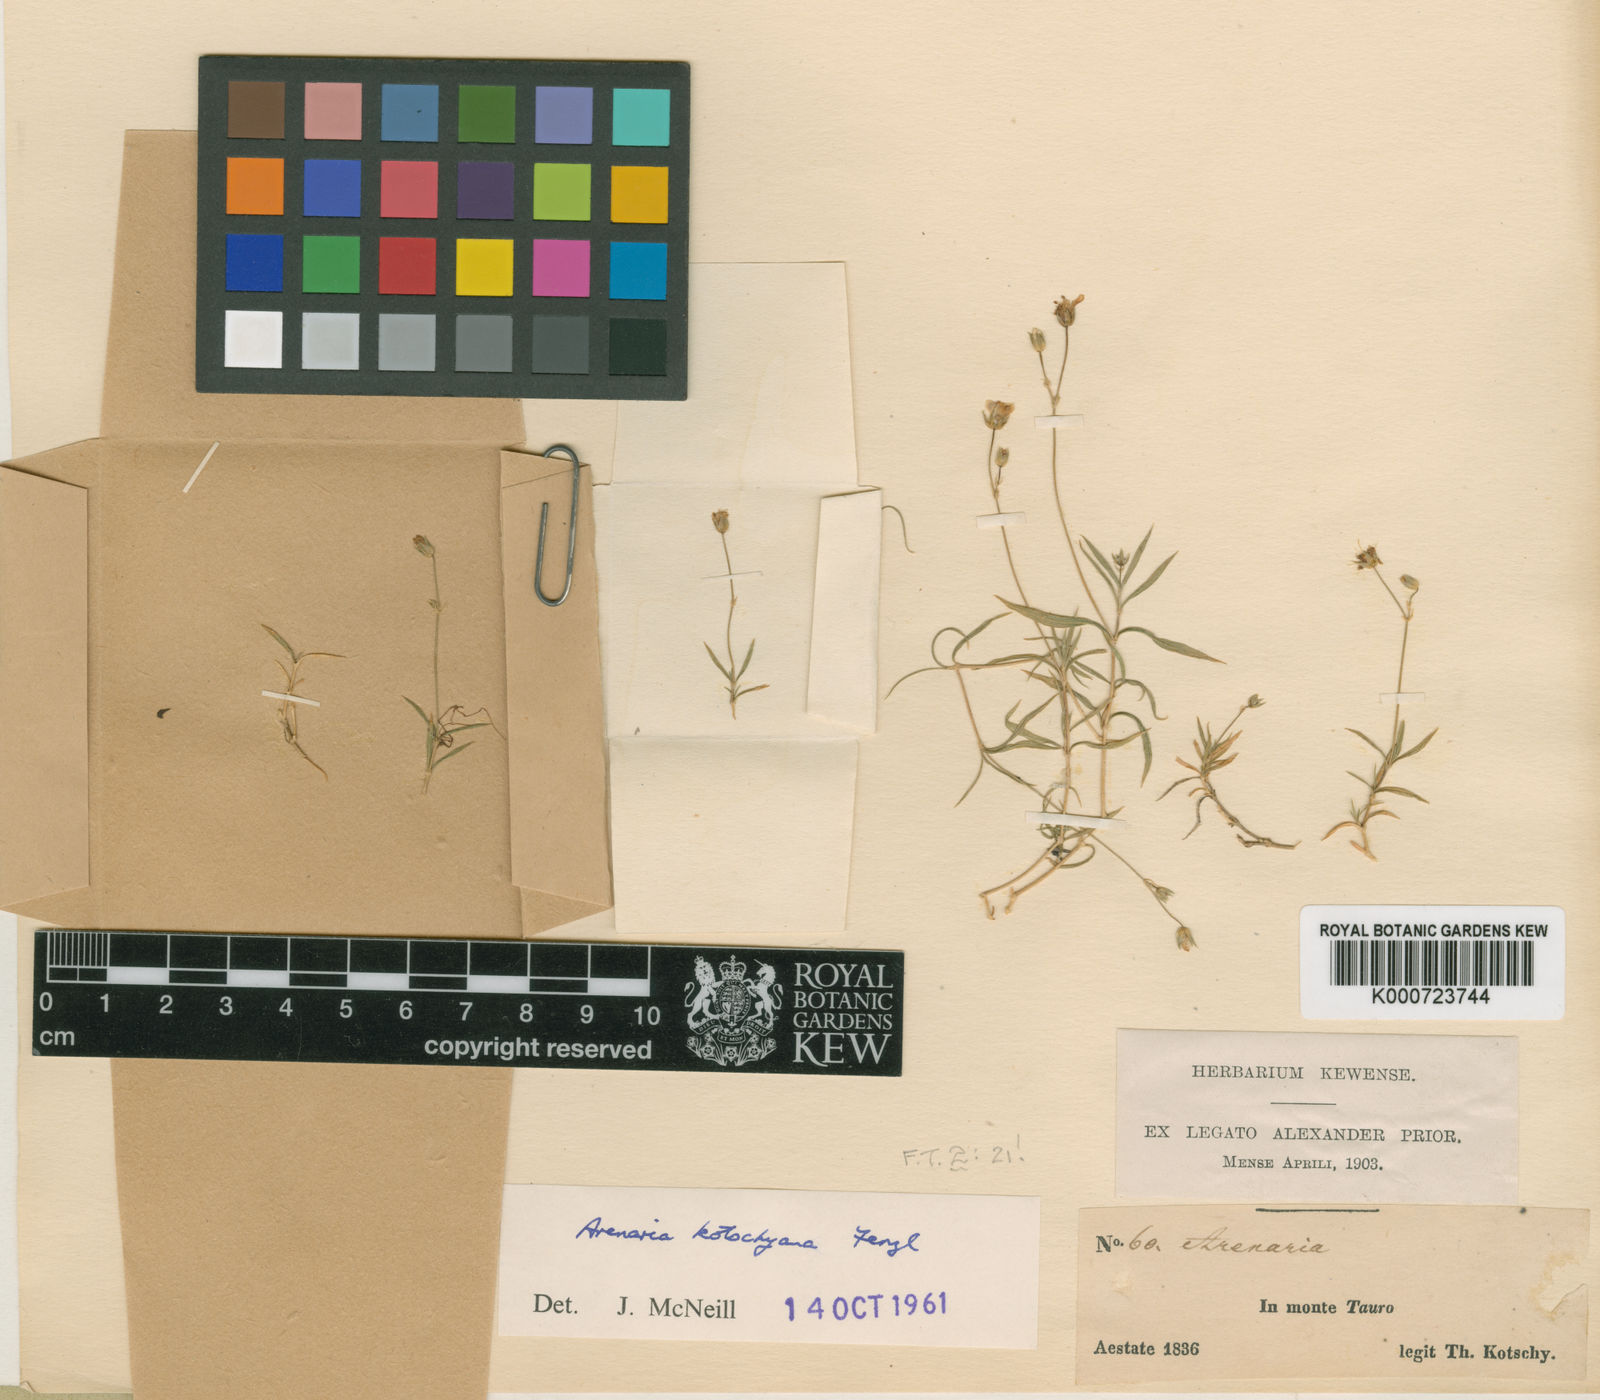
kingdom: Plantae
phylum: Tracheophyta
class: Magnoliopsida
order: Caryophyllales
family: Caryophyllaceae
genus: Arenaria
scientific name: Arenaria kotschyana
